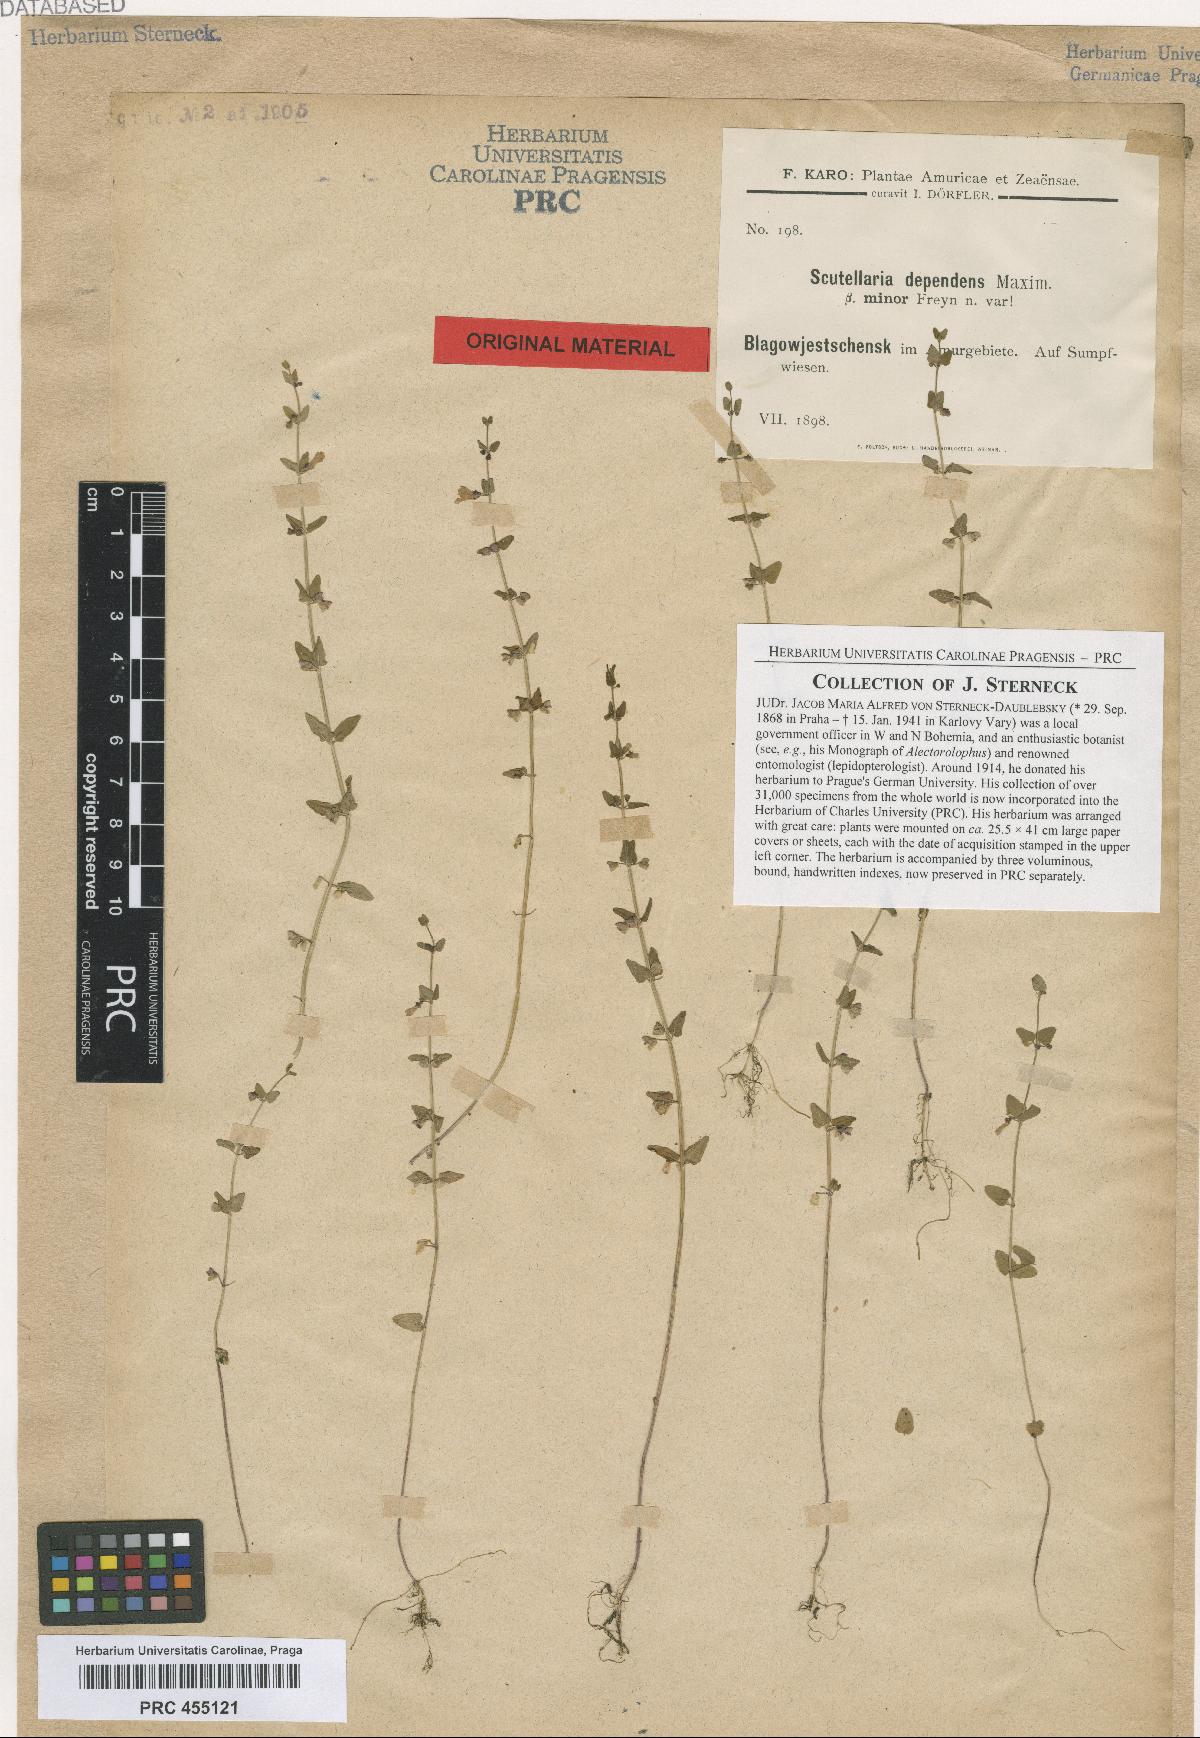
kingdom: Plantae
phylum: Tracheophyta
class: Magnoliopsida
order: Lamiales
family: Lamiaceae
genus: Scutellaria
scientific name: Scutellaria dependens
